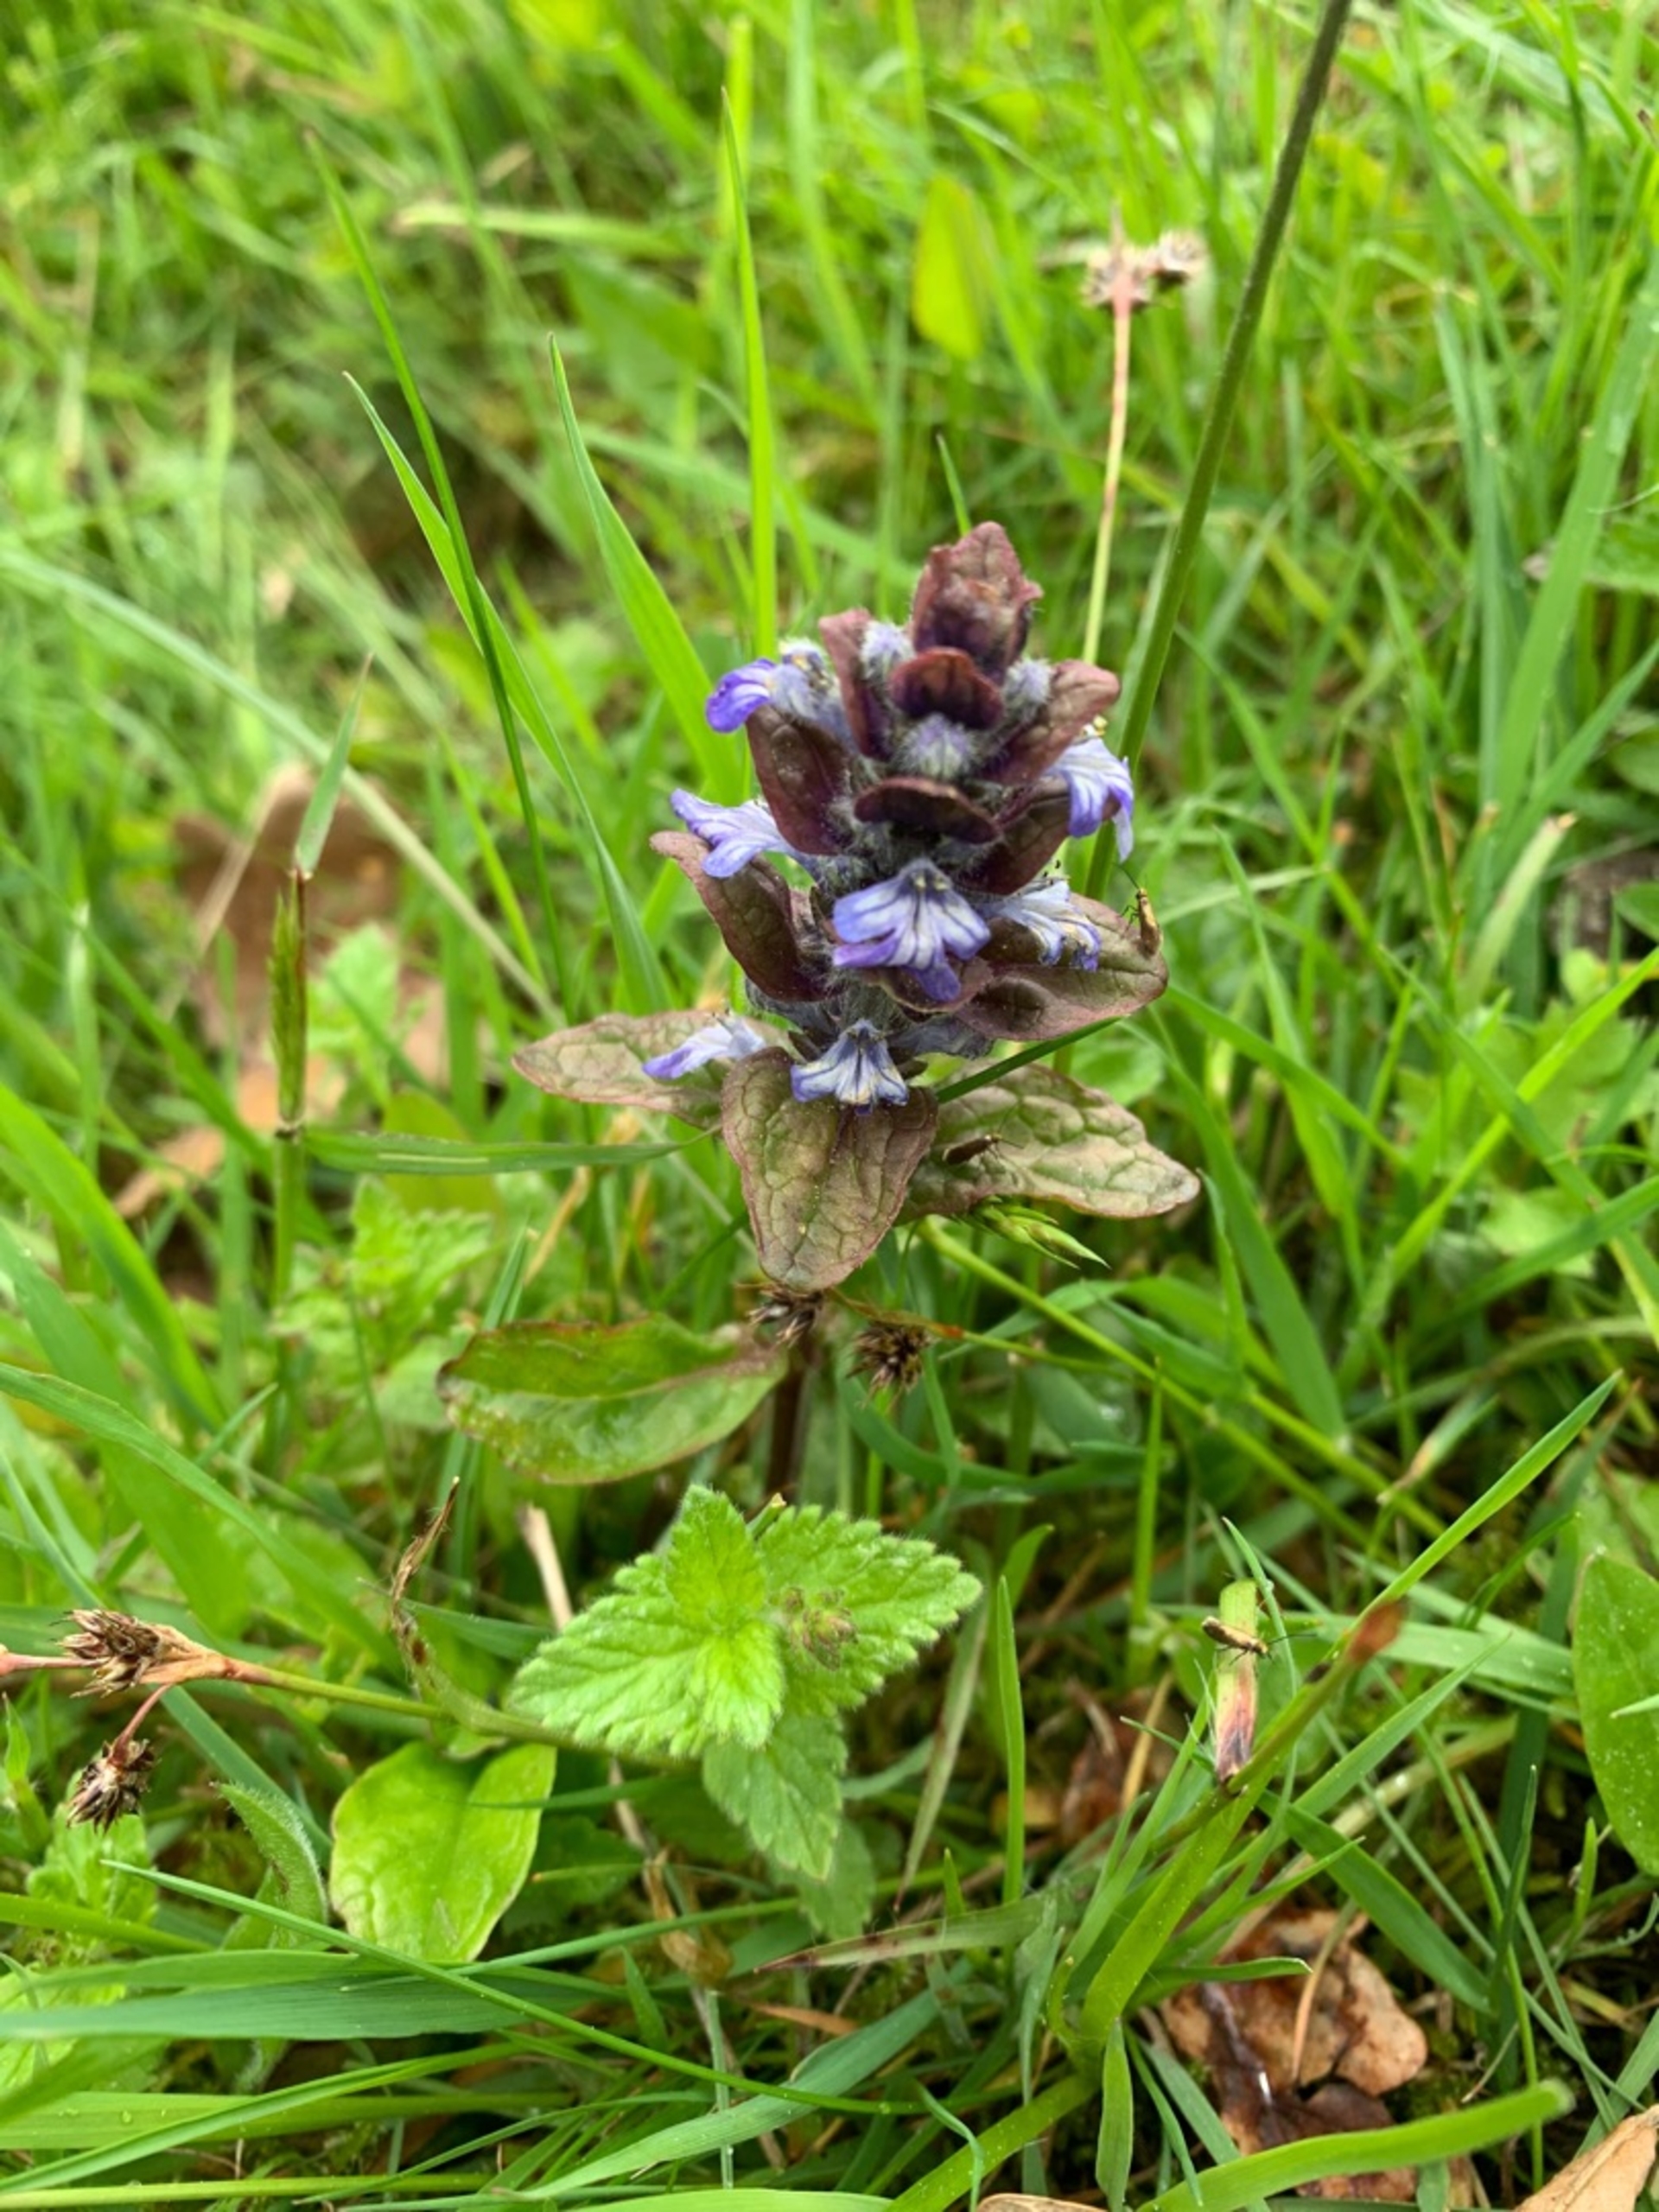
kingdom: Plantae
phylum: Tracheophyta
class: Magnoliopsida
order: Lamiales
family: Lamiaceae
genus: Ajuga
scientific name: Ajuga reptans
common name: Krybende læbeløs
